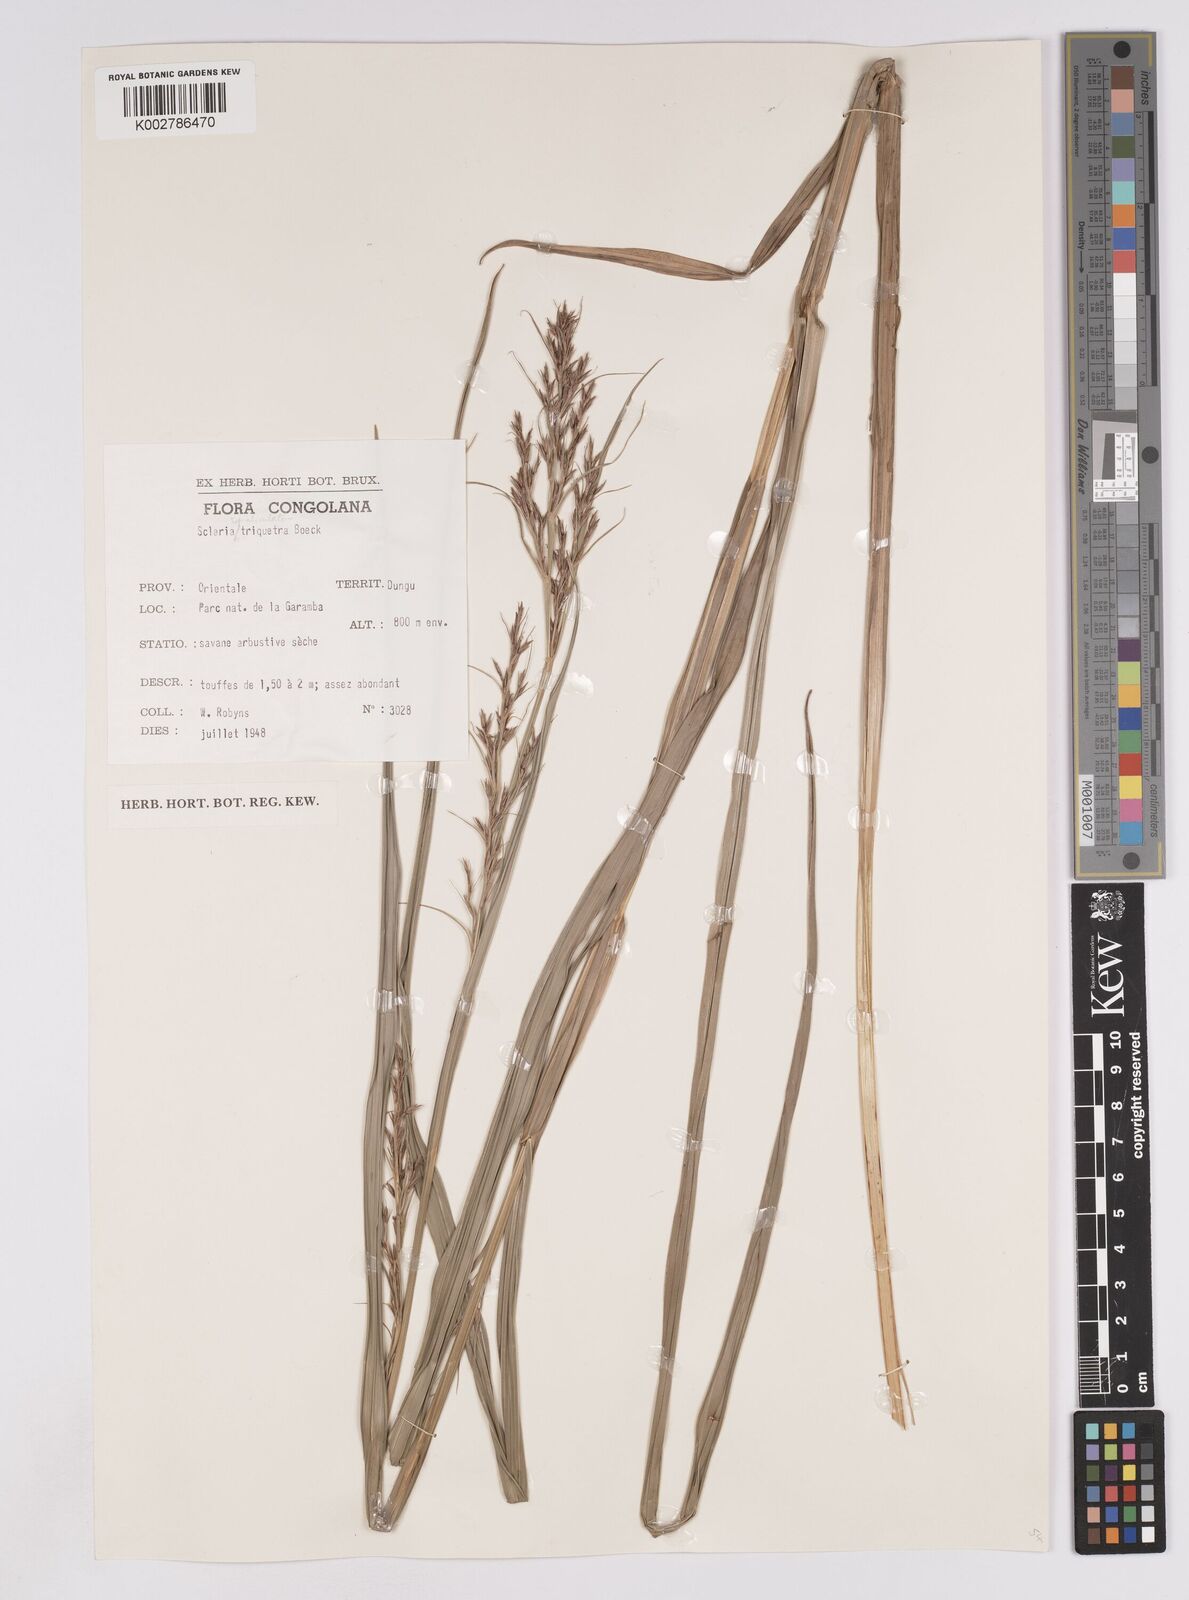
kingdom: Plantae
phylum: Tracheophyta
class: Liliopsida
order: Poales
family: Cyperaceae
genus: Scleria
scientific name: Scleria lagoensis
